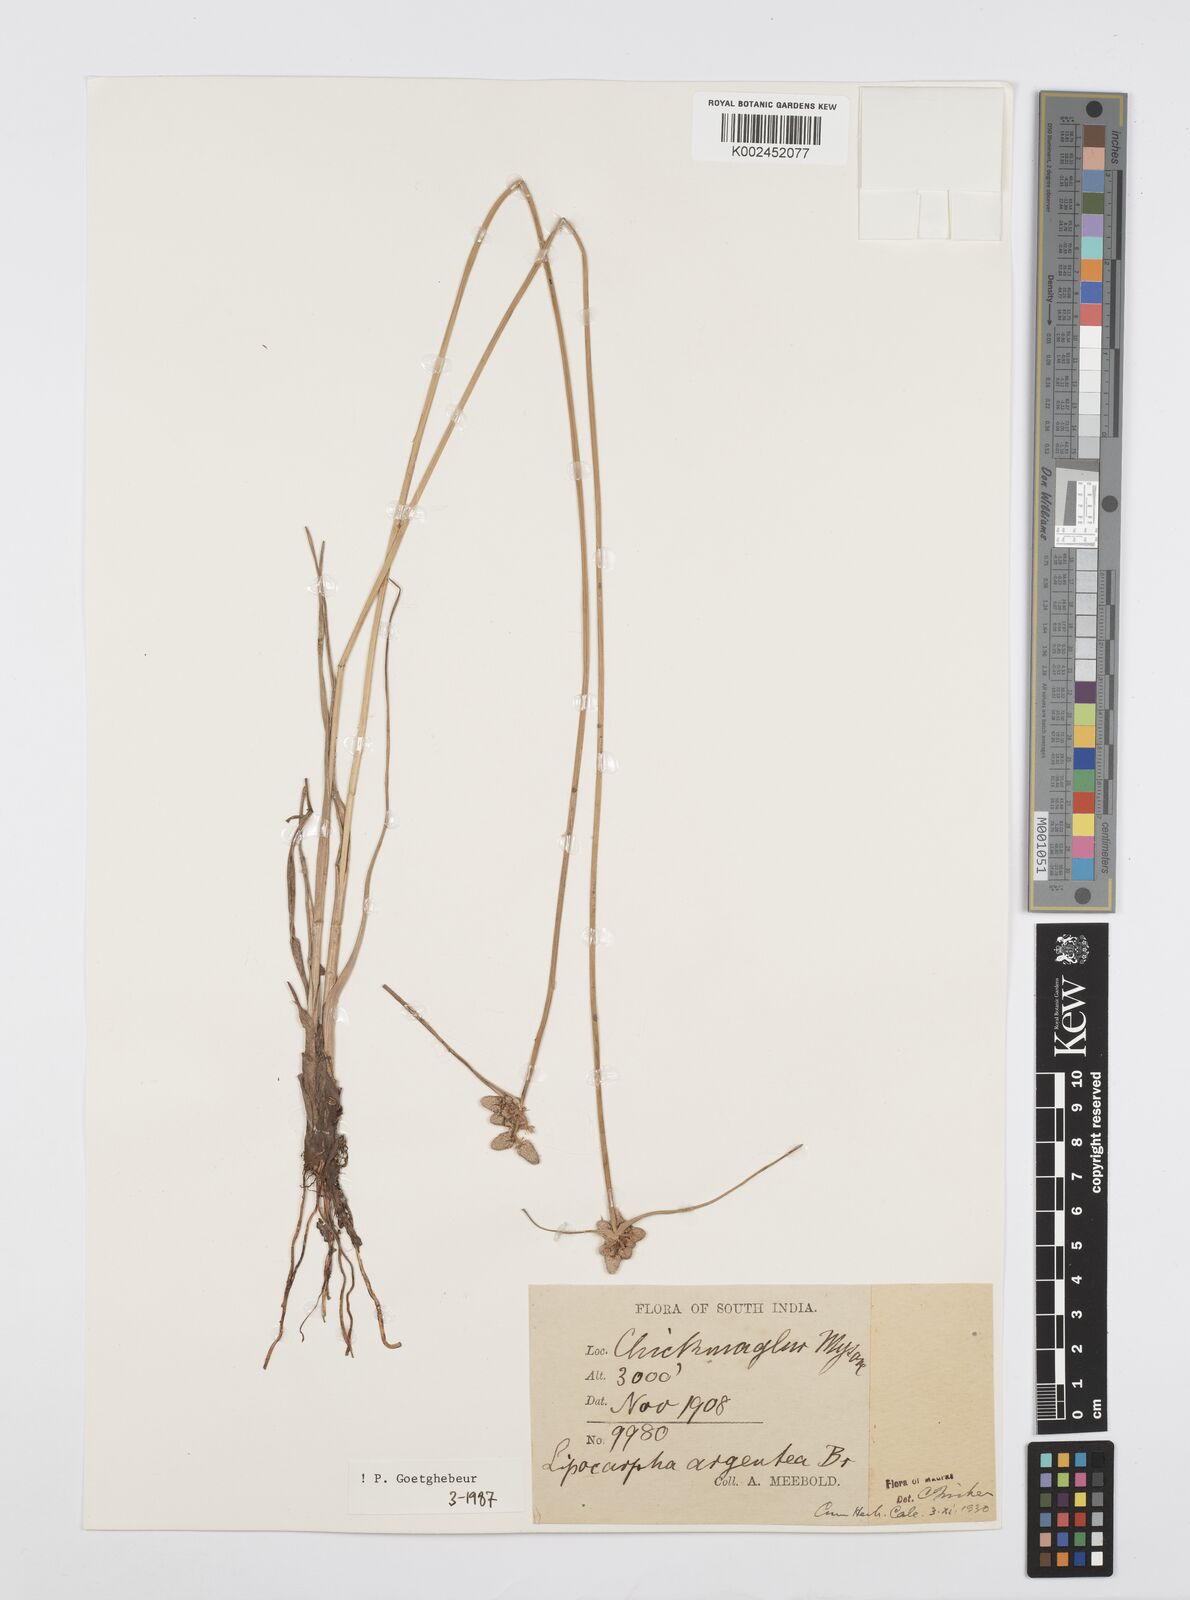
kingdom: Plantae
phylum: Tracheophyta
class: Liliopsida
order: Poales
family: Cyperaceae
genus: Cyperus
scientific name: Cyperus
